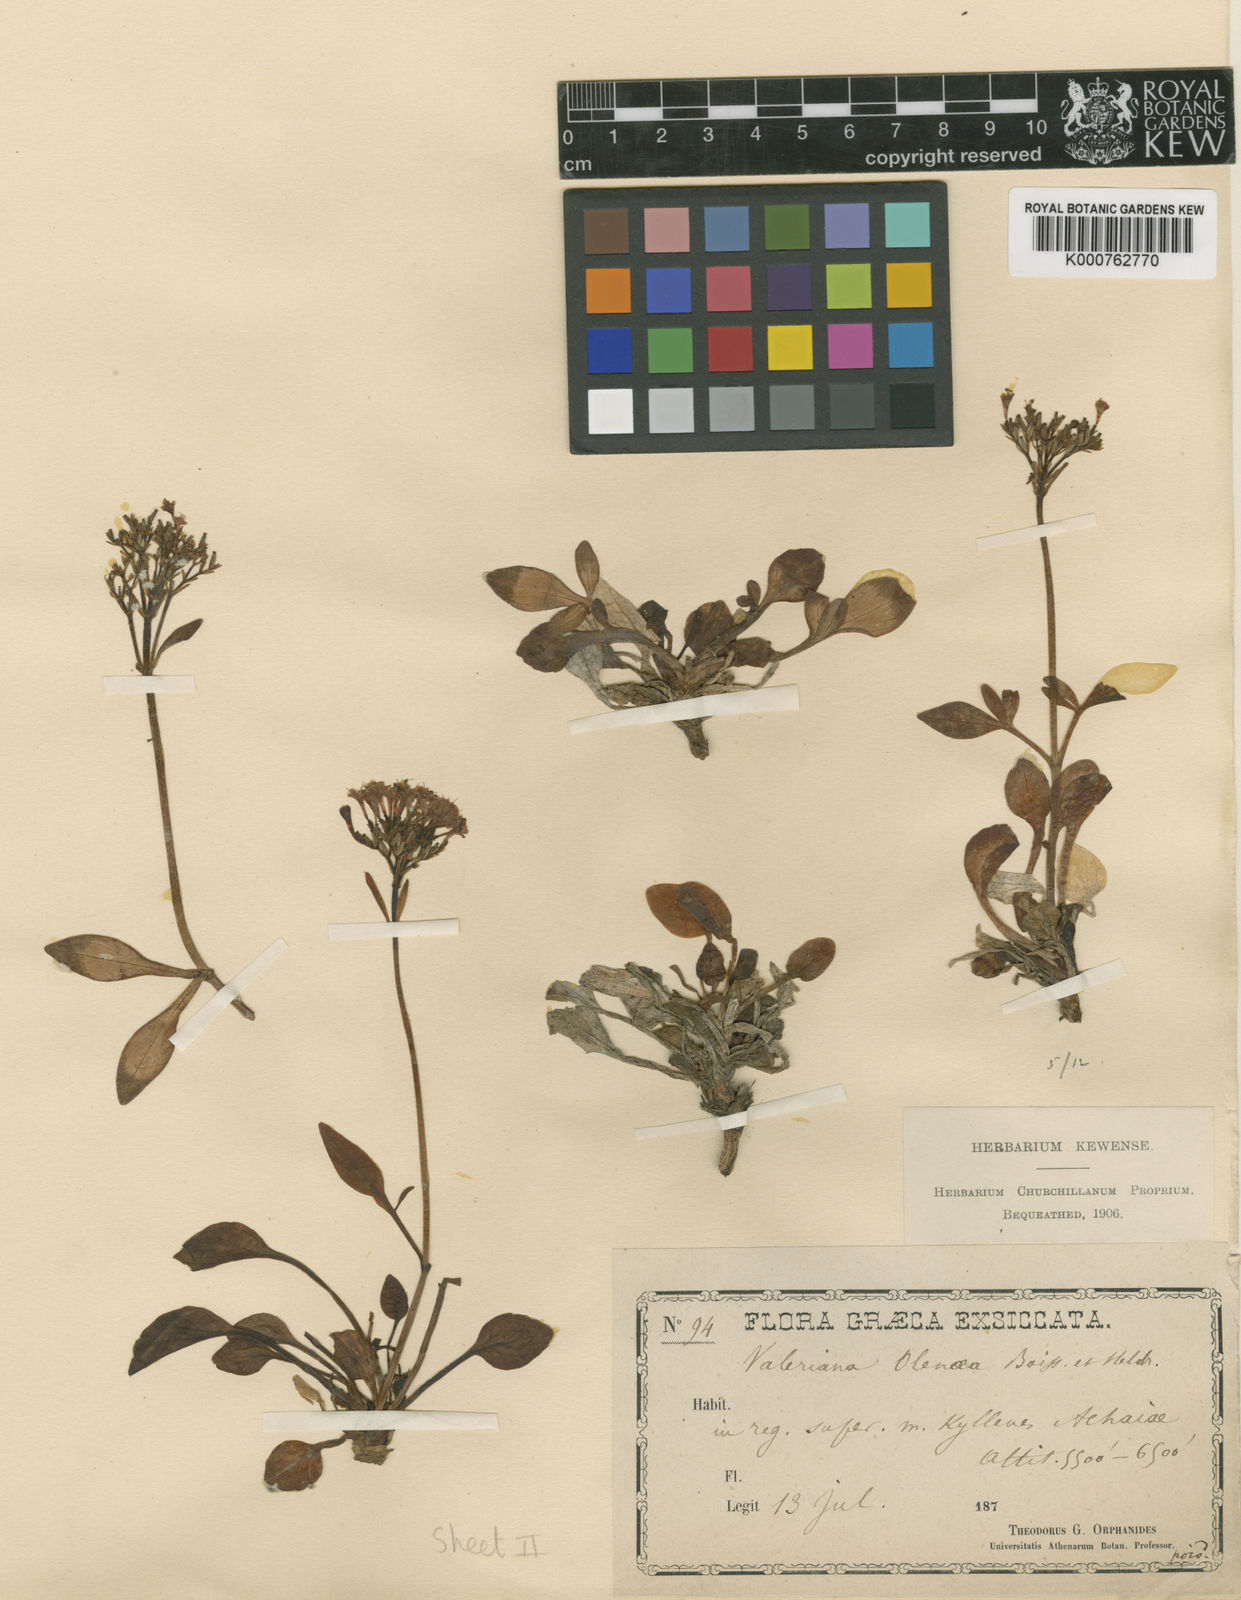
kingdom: Plantae
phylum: Tracheophyta
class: Magnoliopsida
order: Dipsacales
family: Caprifoliaceae
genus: Valeriana
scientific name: Valeriana olenaea
